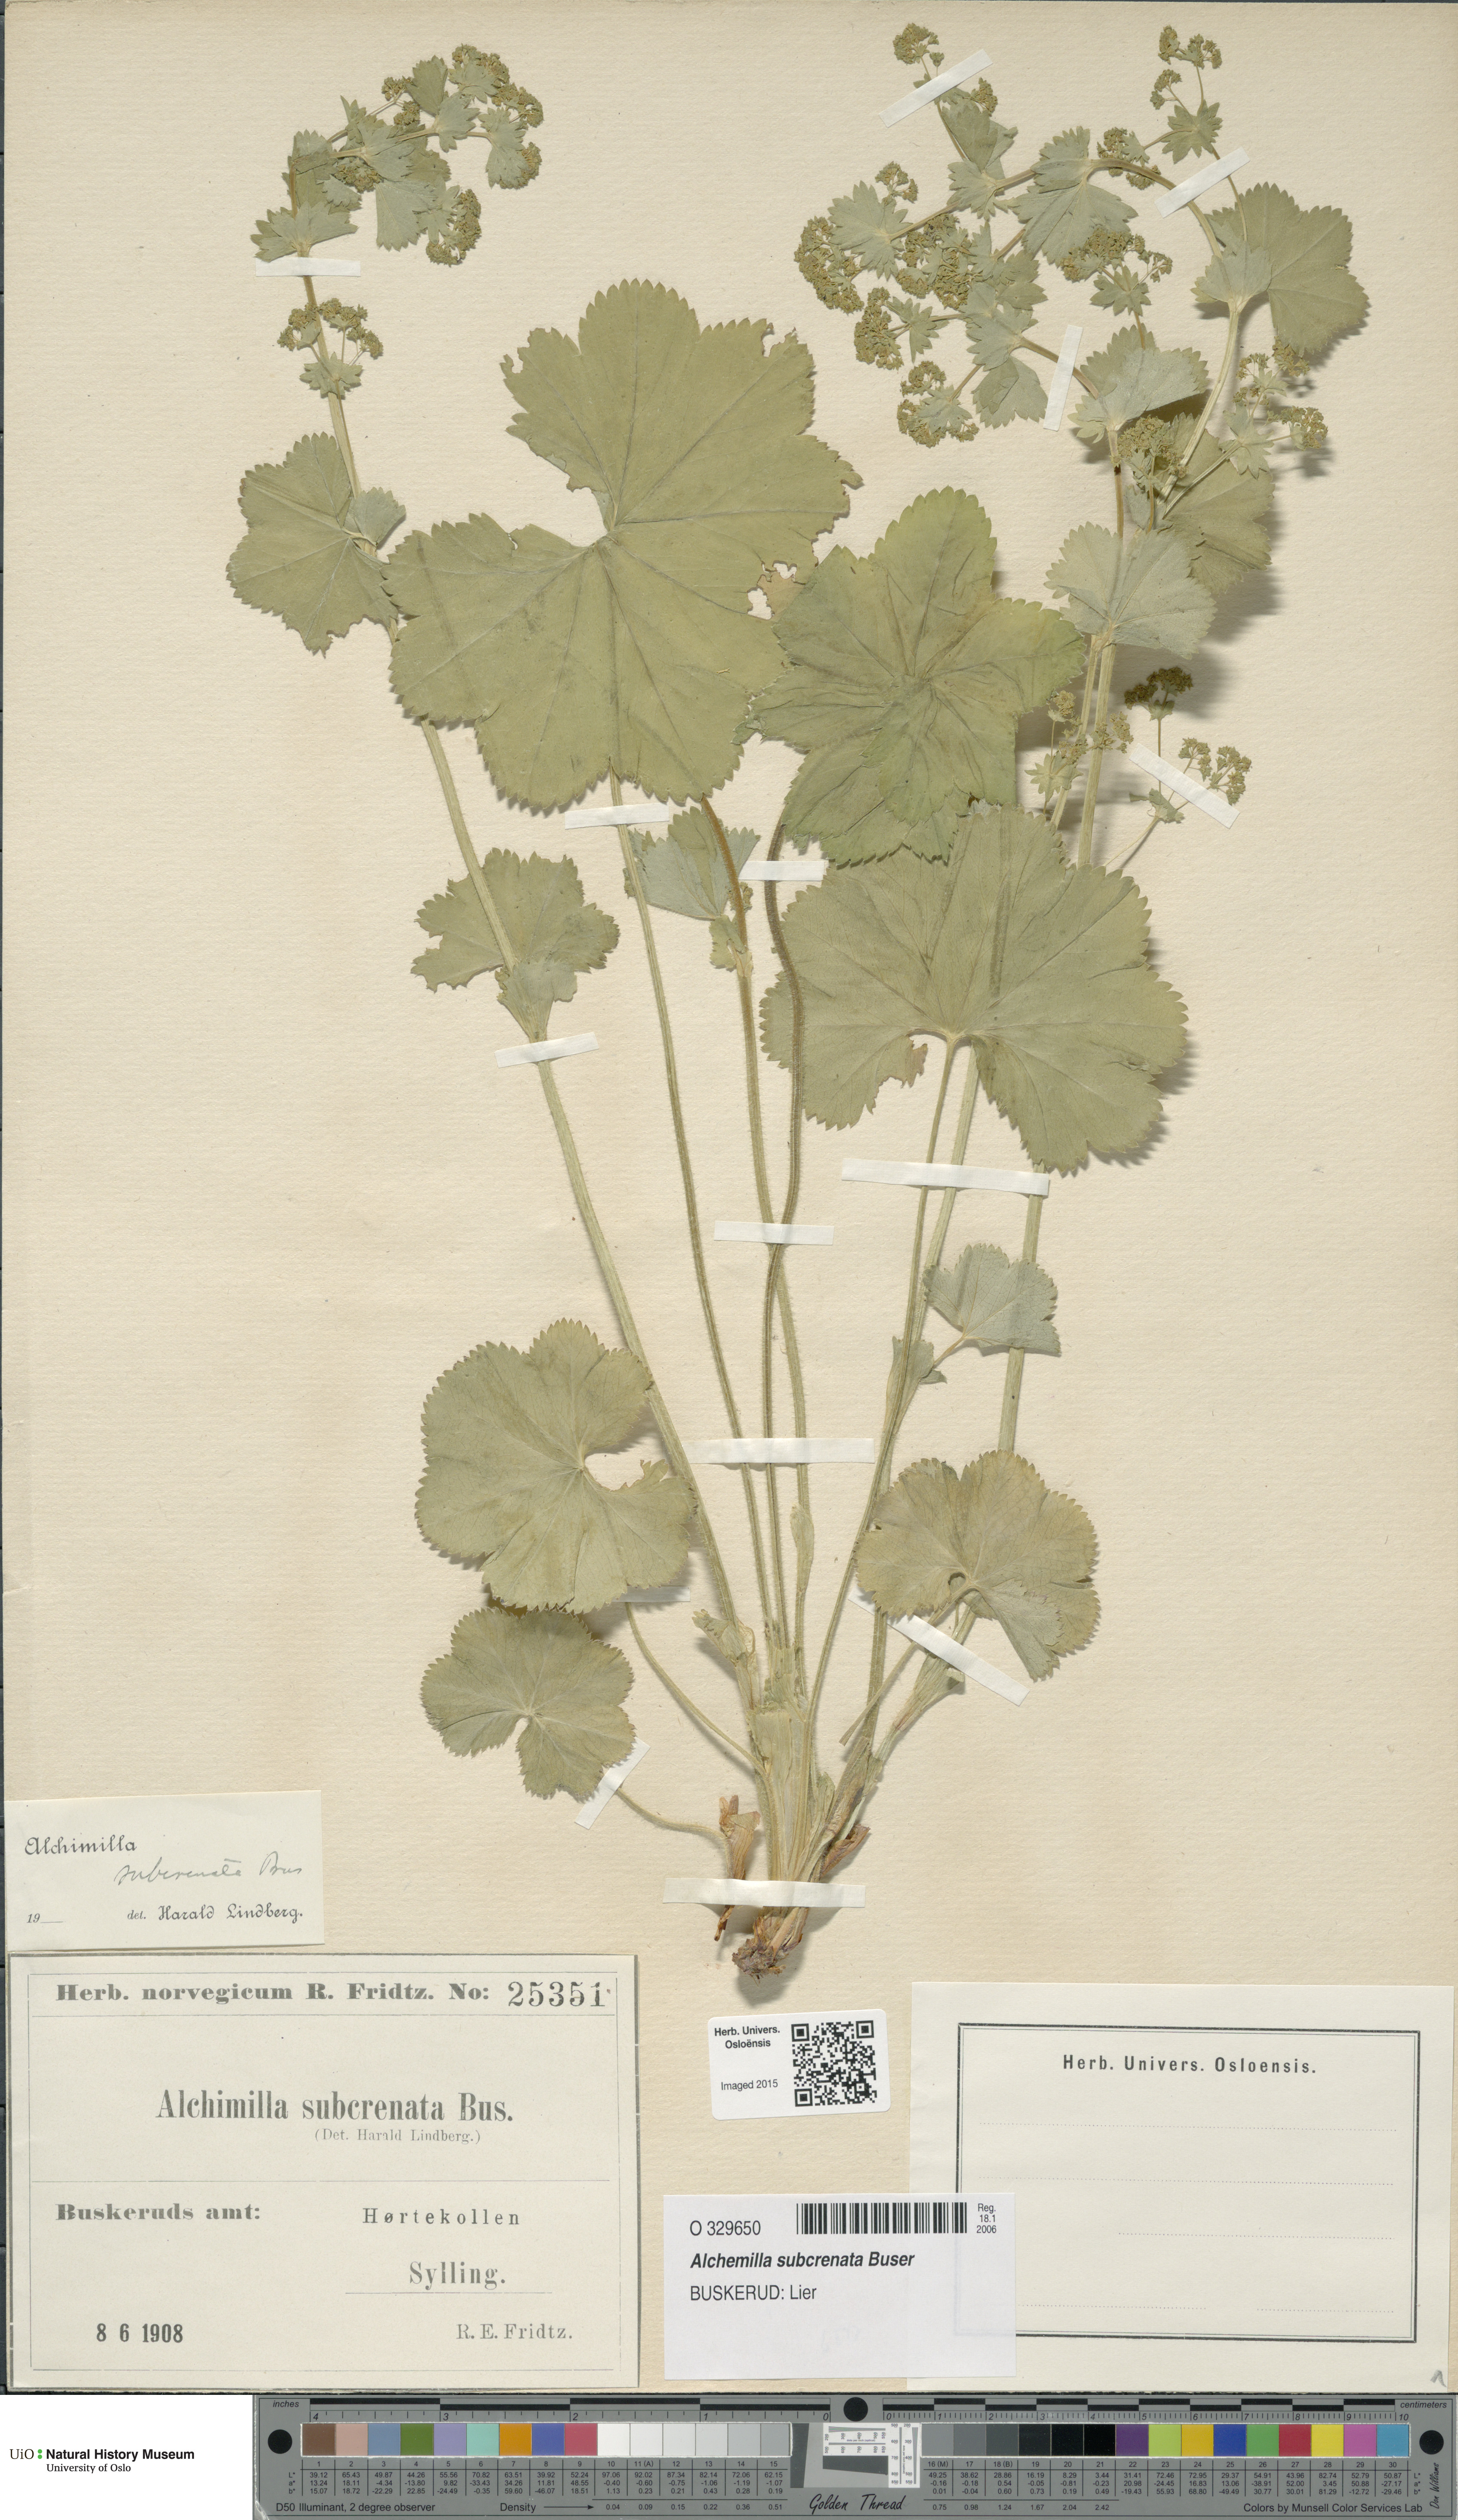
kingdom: Plantae
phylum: Tracheophyta
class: Magnoliopsida
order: Rosales
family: Rosaceae
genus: Alchemilla
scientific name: Alchemilla subcrenata
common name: Broadtooth lady's mantle
